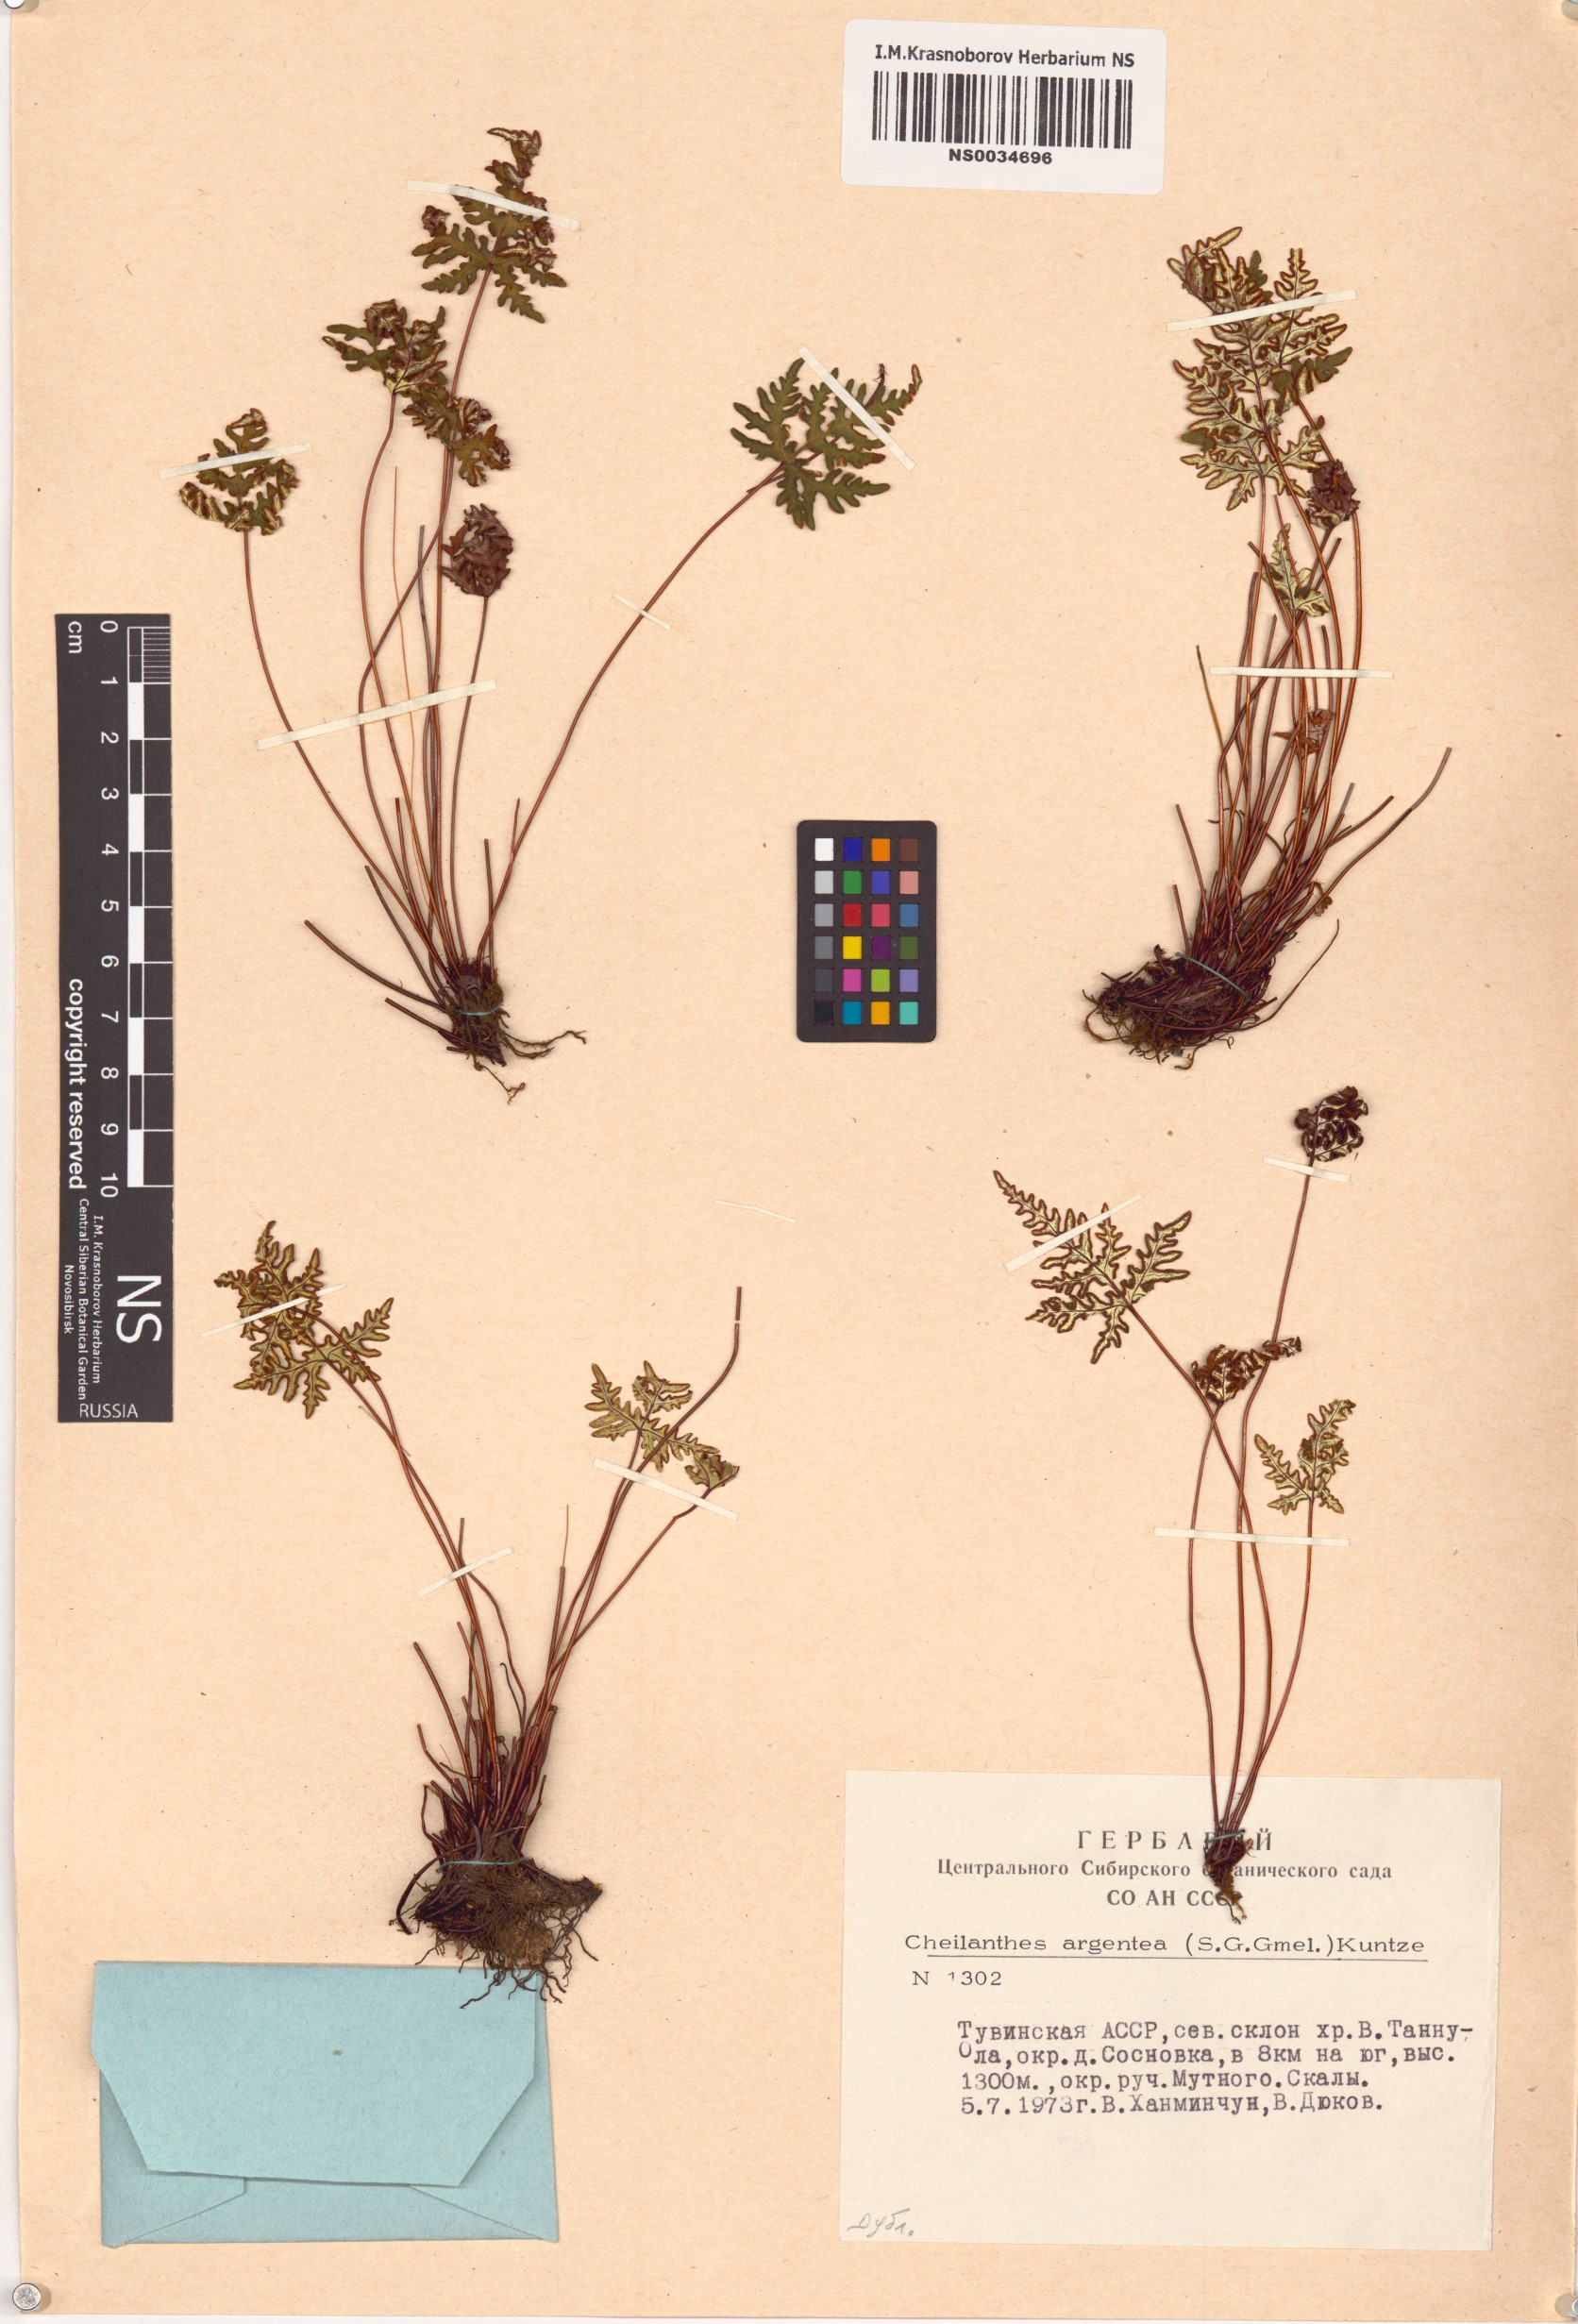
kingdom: Plantae
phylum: Tracheophyta
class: Polypodiopsida
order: Polypodiales
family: Pteridaceae
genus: Aleuritopteris
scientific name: Aleuritopteris argentea
